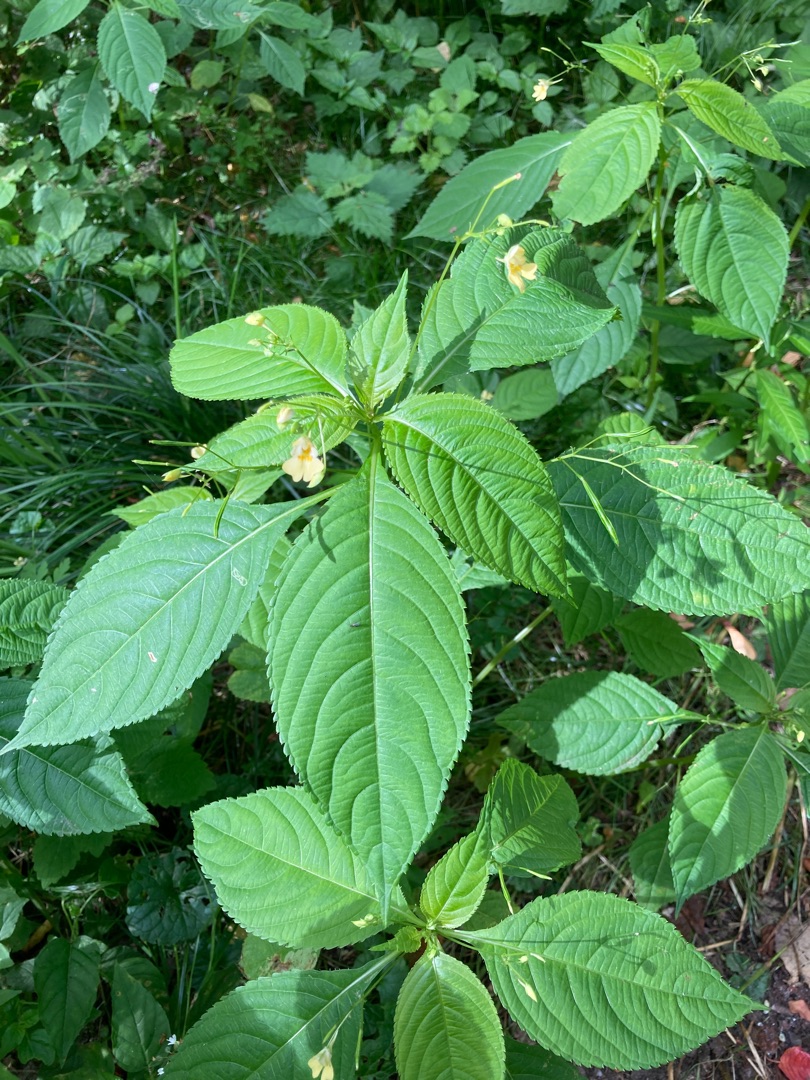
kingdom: Plantae
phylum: Tracheophyta
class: Magnoliopsida
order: Ericales
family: Balsaminaceae
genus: Impatiens
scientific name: Impatiens parviflora
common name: Småblomstret balsamin
